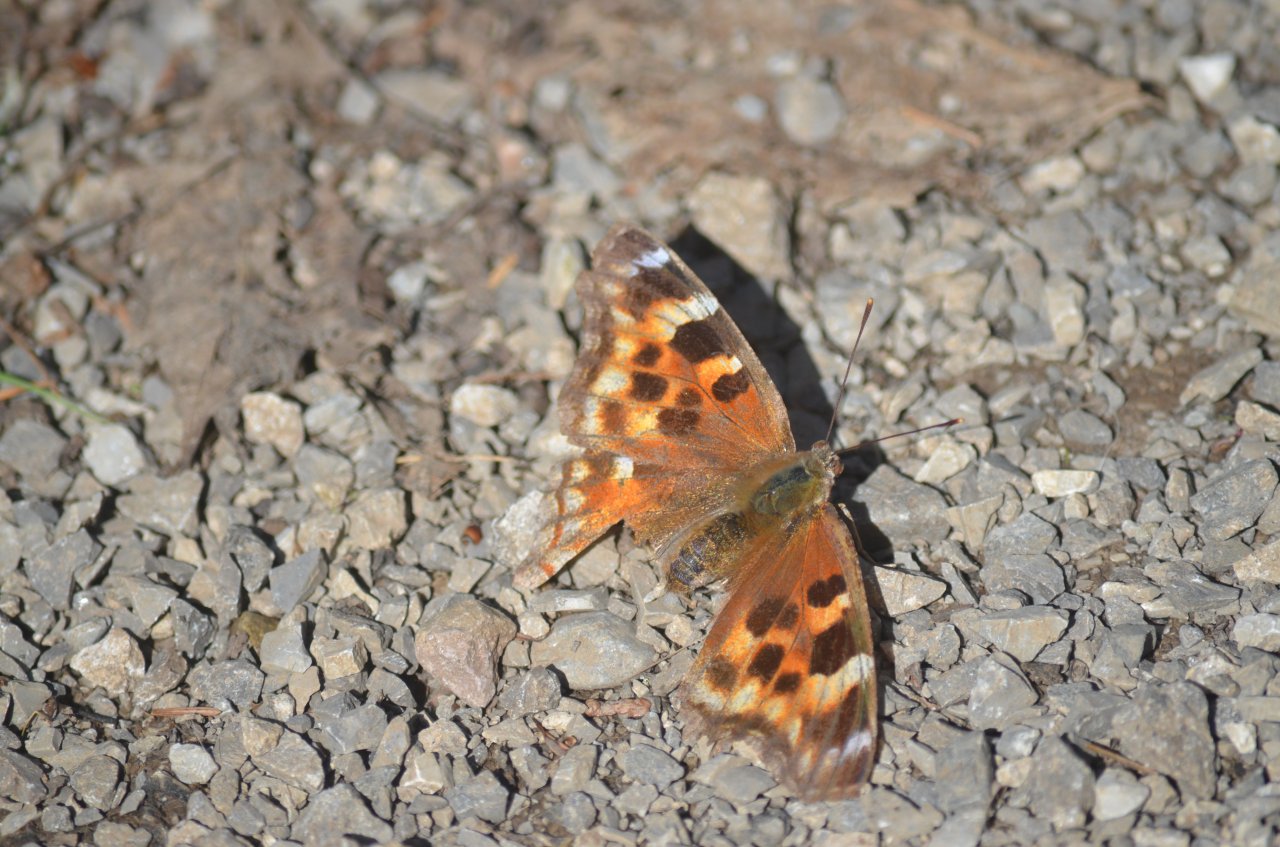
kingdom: Animalia
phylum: Arthropoda
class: Insecta
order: Lepidoptera
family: Nymphalidae
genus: Polygonia
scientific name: Polygonia vaualbum
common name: Compton Tortoiseshell
